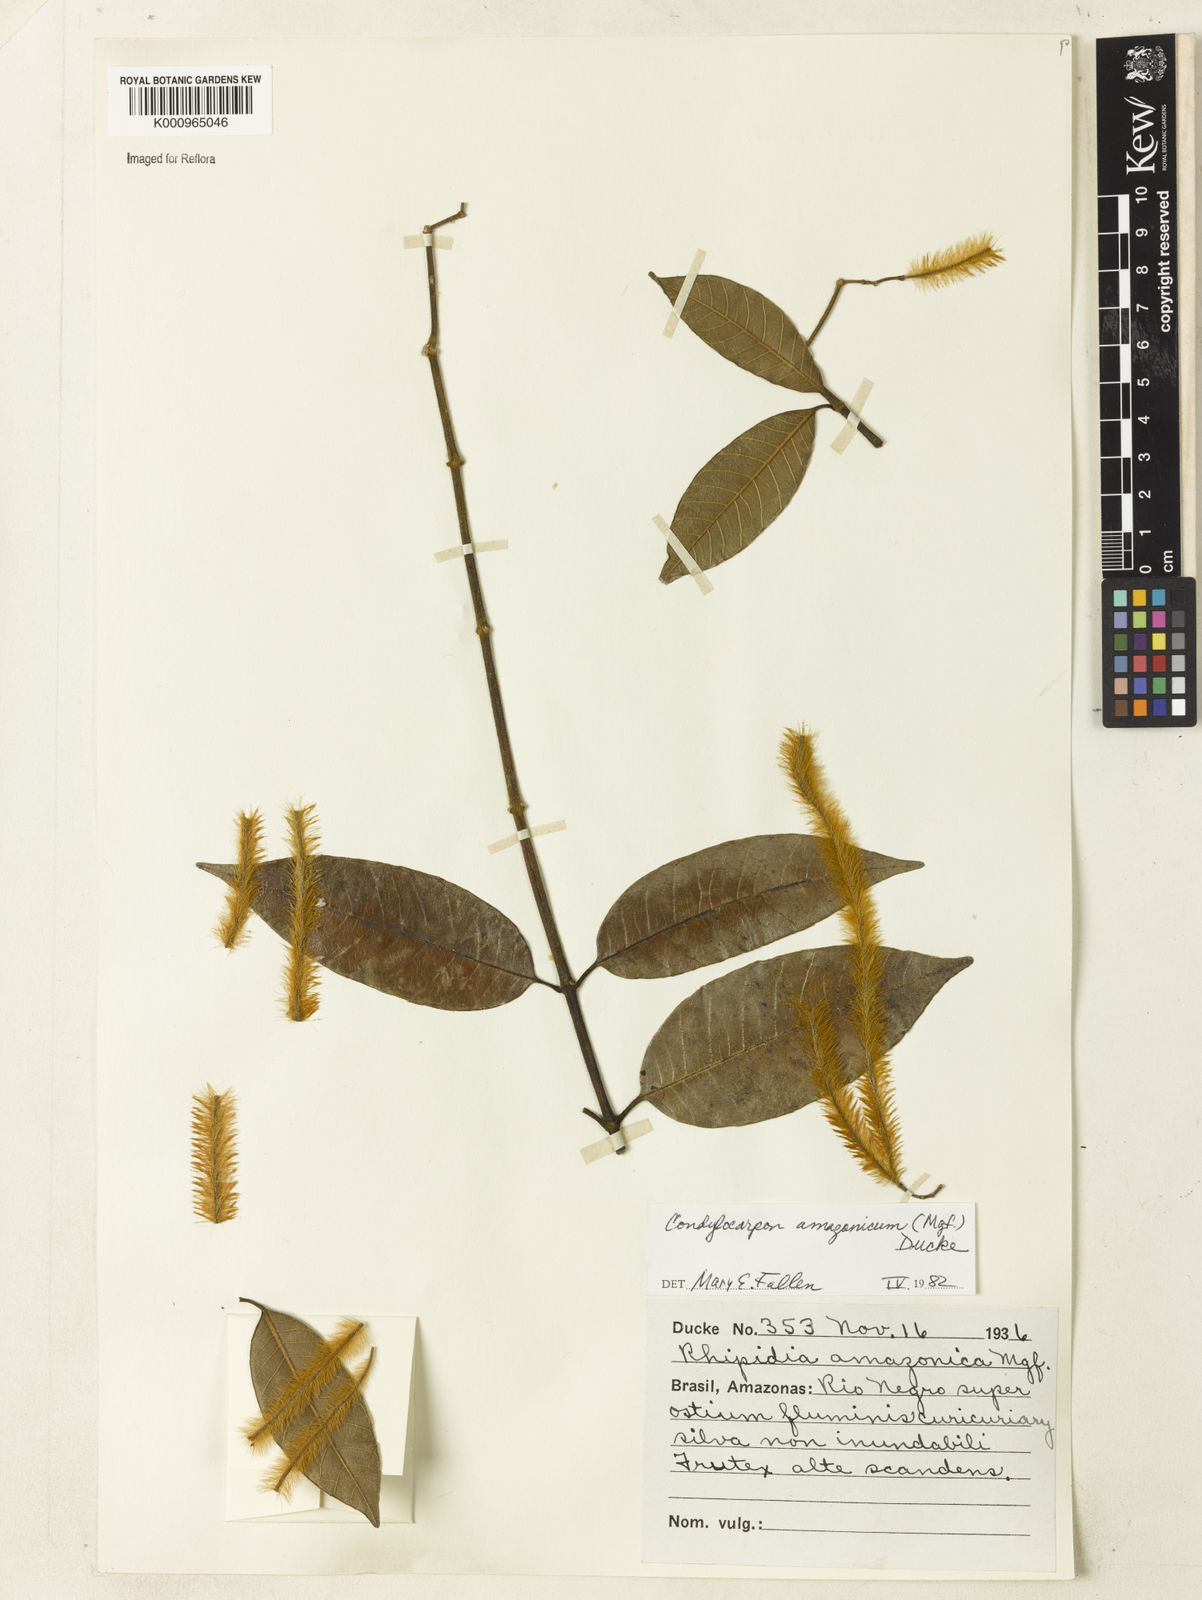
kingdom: Plantae
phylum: Tracheophyta
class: Magnoliopsida
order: Gentianales
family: Apocynaceae
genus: Condylocarpon
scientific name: Condylocarpon amazonicum
